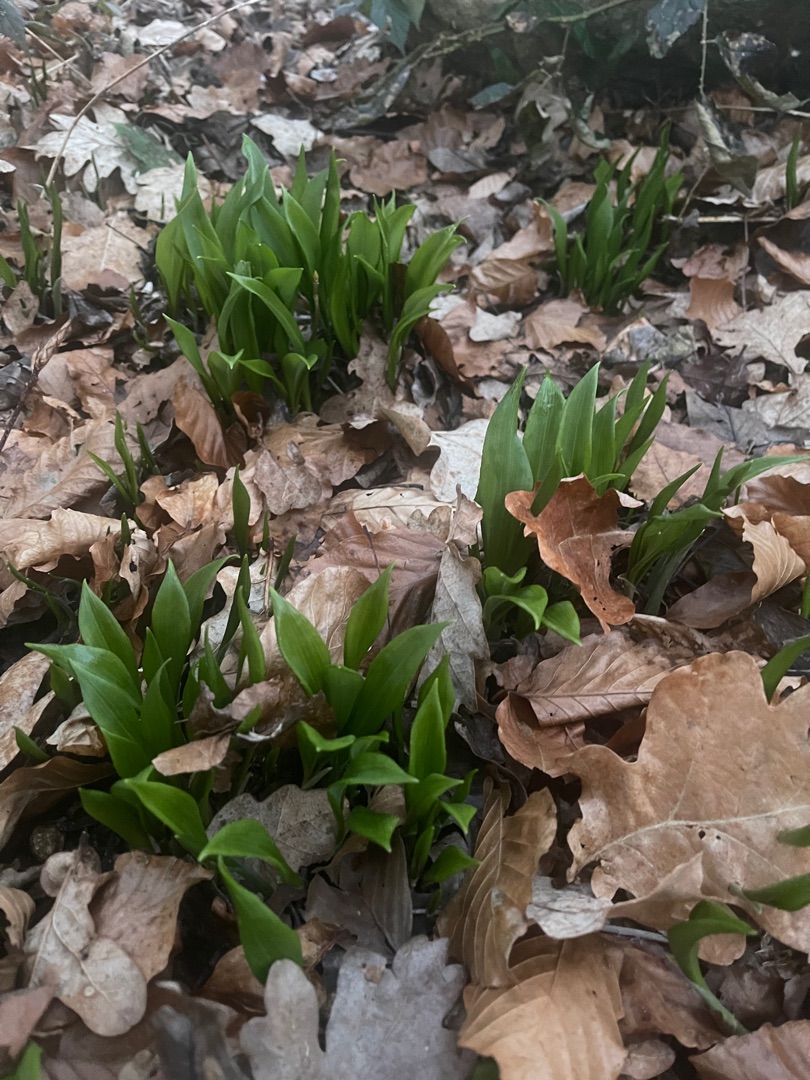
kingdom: Plantae
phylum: Tracheophyta
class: Liliopsida
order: Asparagales
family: Amaryllidaceae
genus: Allium
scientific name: Allium ursinum
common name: Rams-løg
